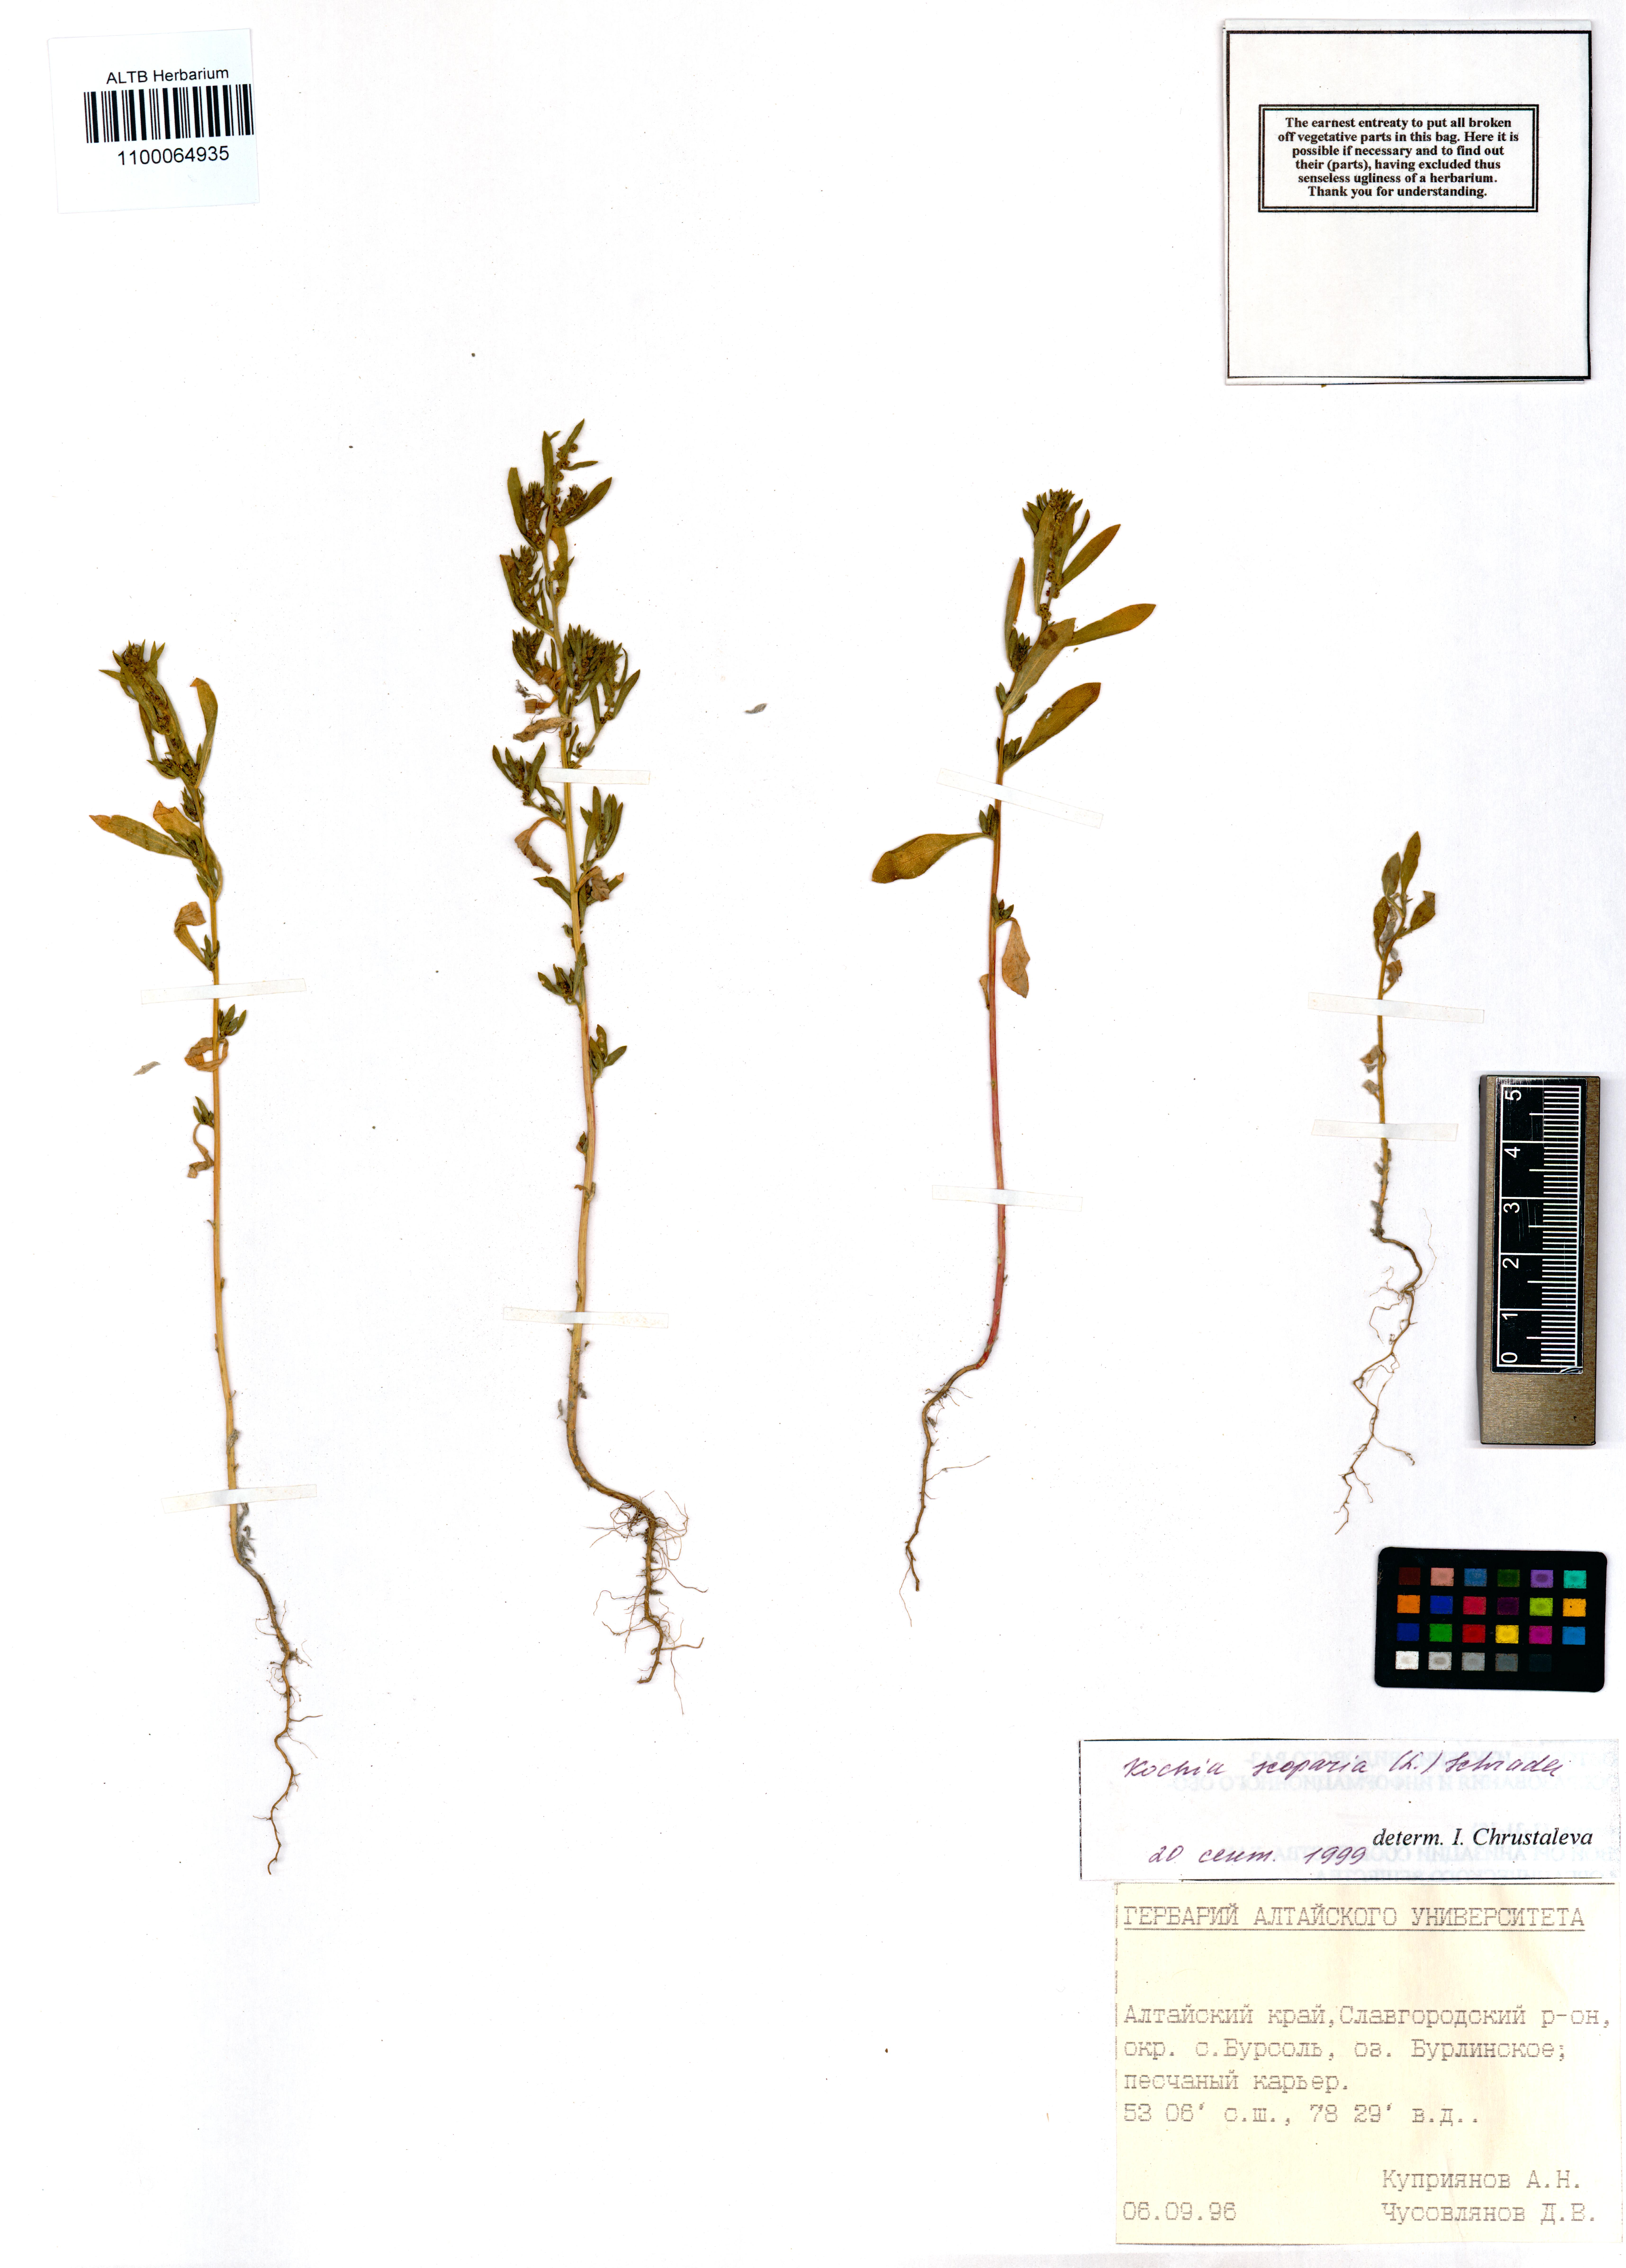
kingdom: Plantae
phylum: Tracheophyta
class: Magnoliopsida
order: Caryophyllales
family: Amaranthaceae
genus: Bassia
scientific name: Bassia scoparia
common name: Belvedere
